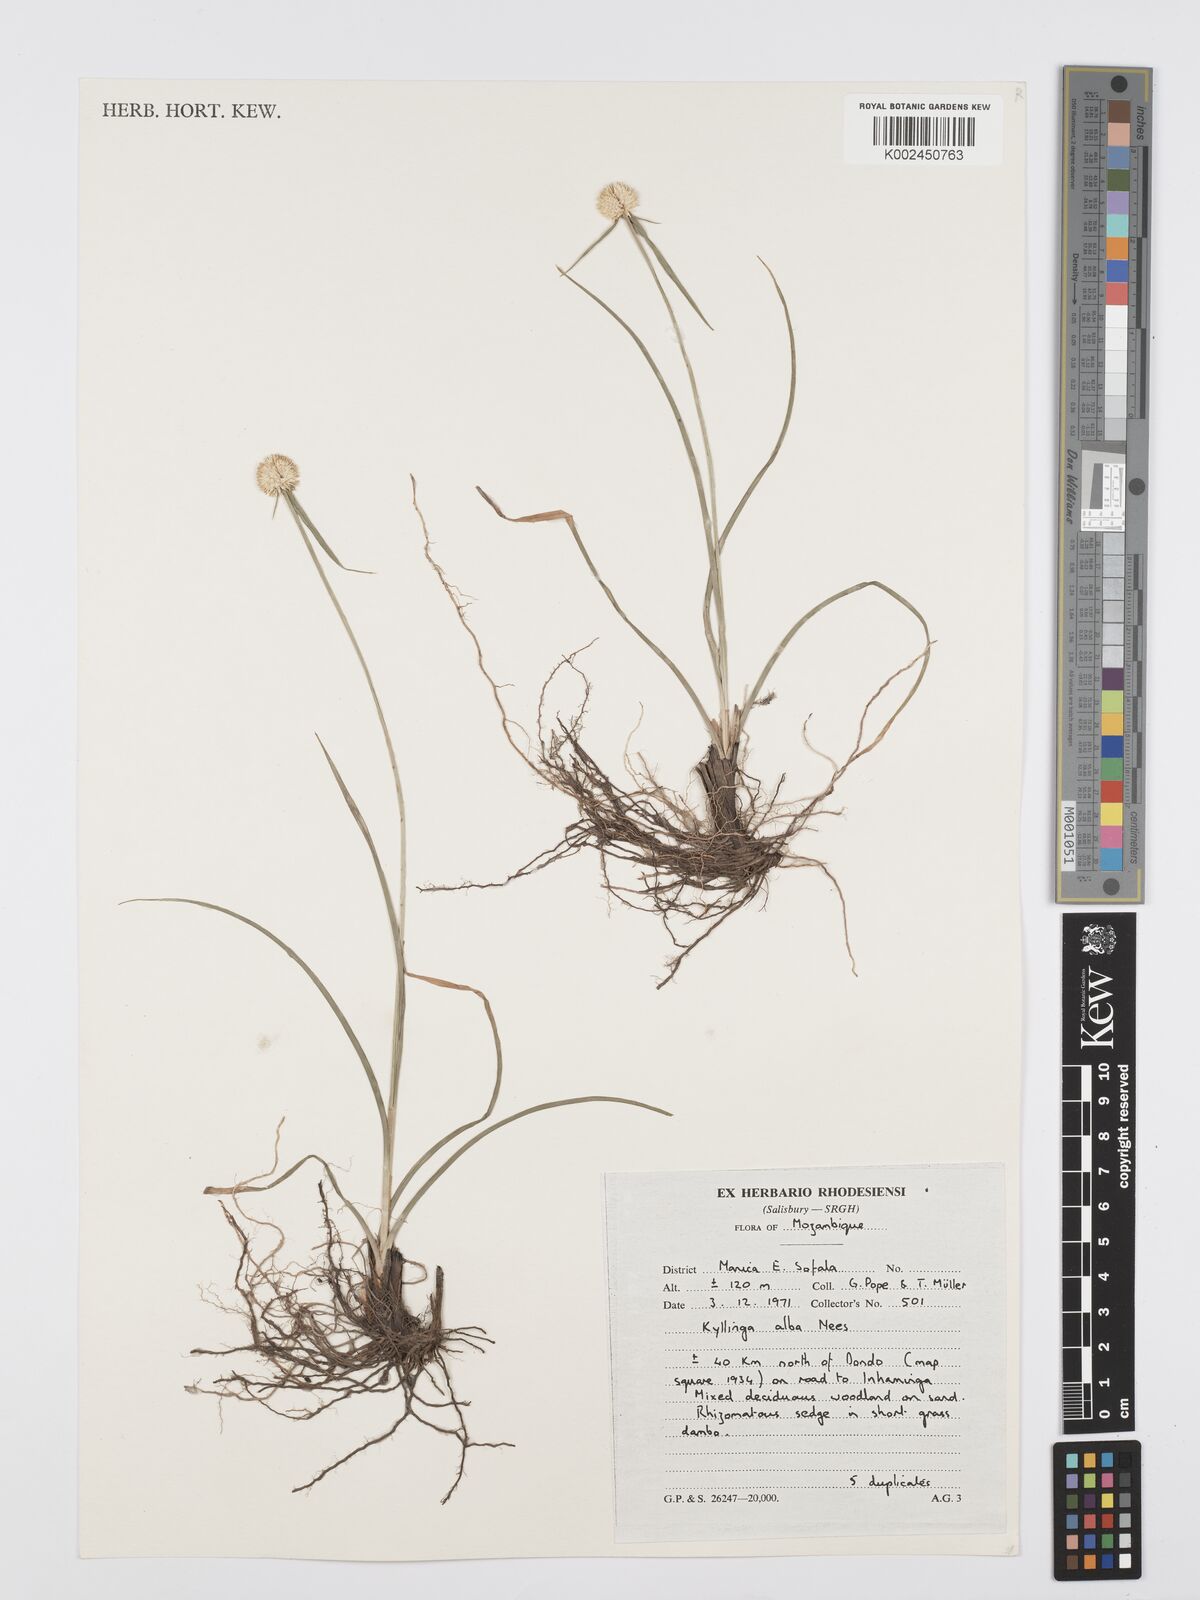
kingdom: Plantae
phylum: Tracheophyta
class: Liliopsida
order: Poales
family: Cyperaceae
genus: Cyperus
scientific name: Cyperus rukwanus
